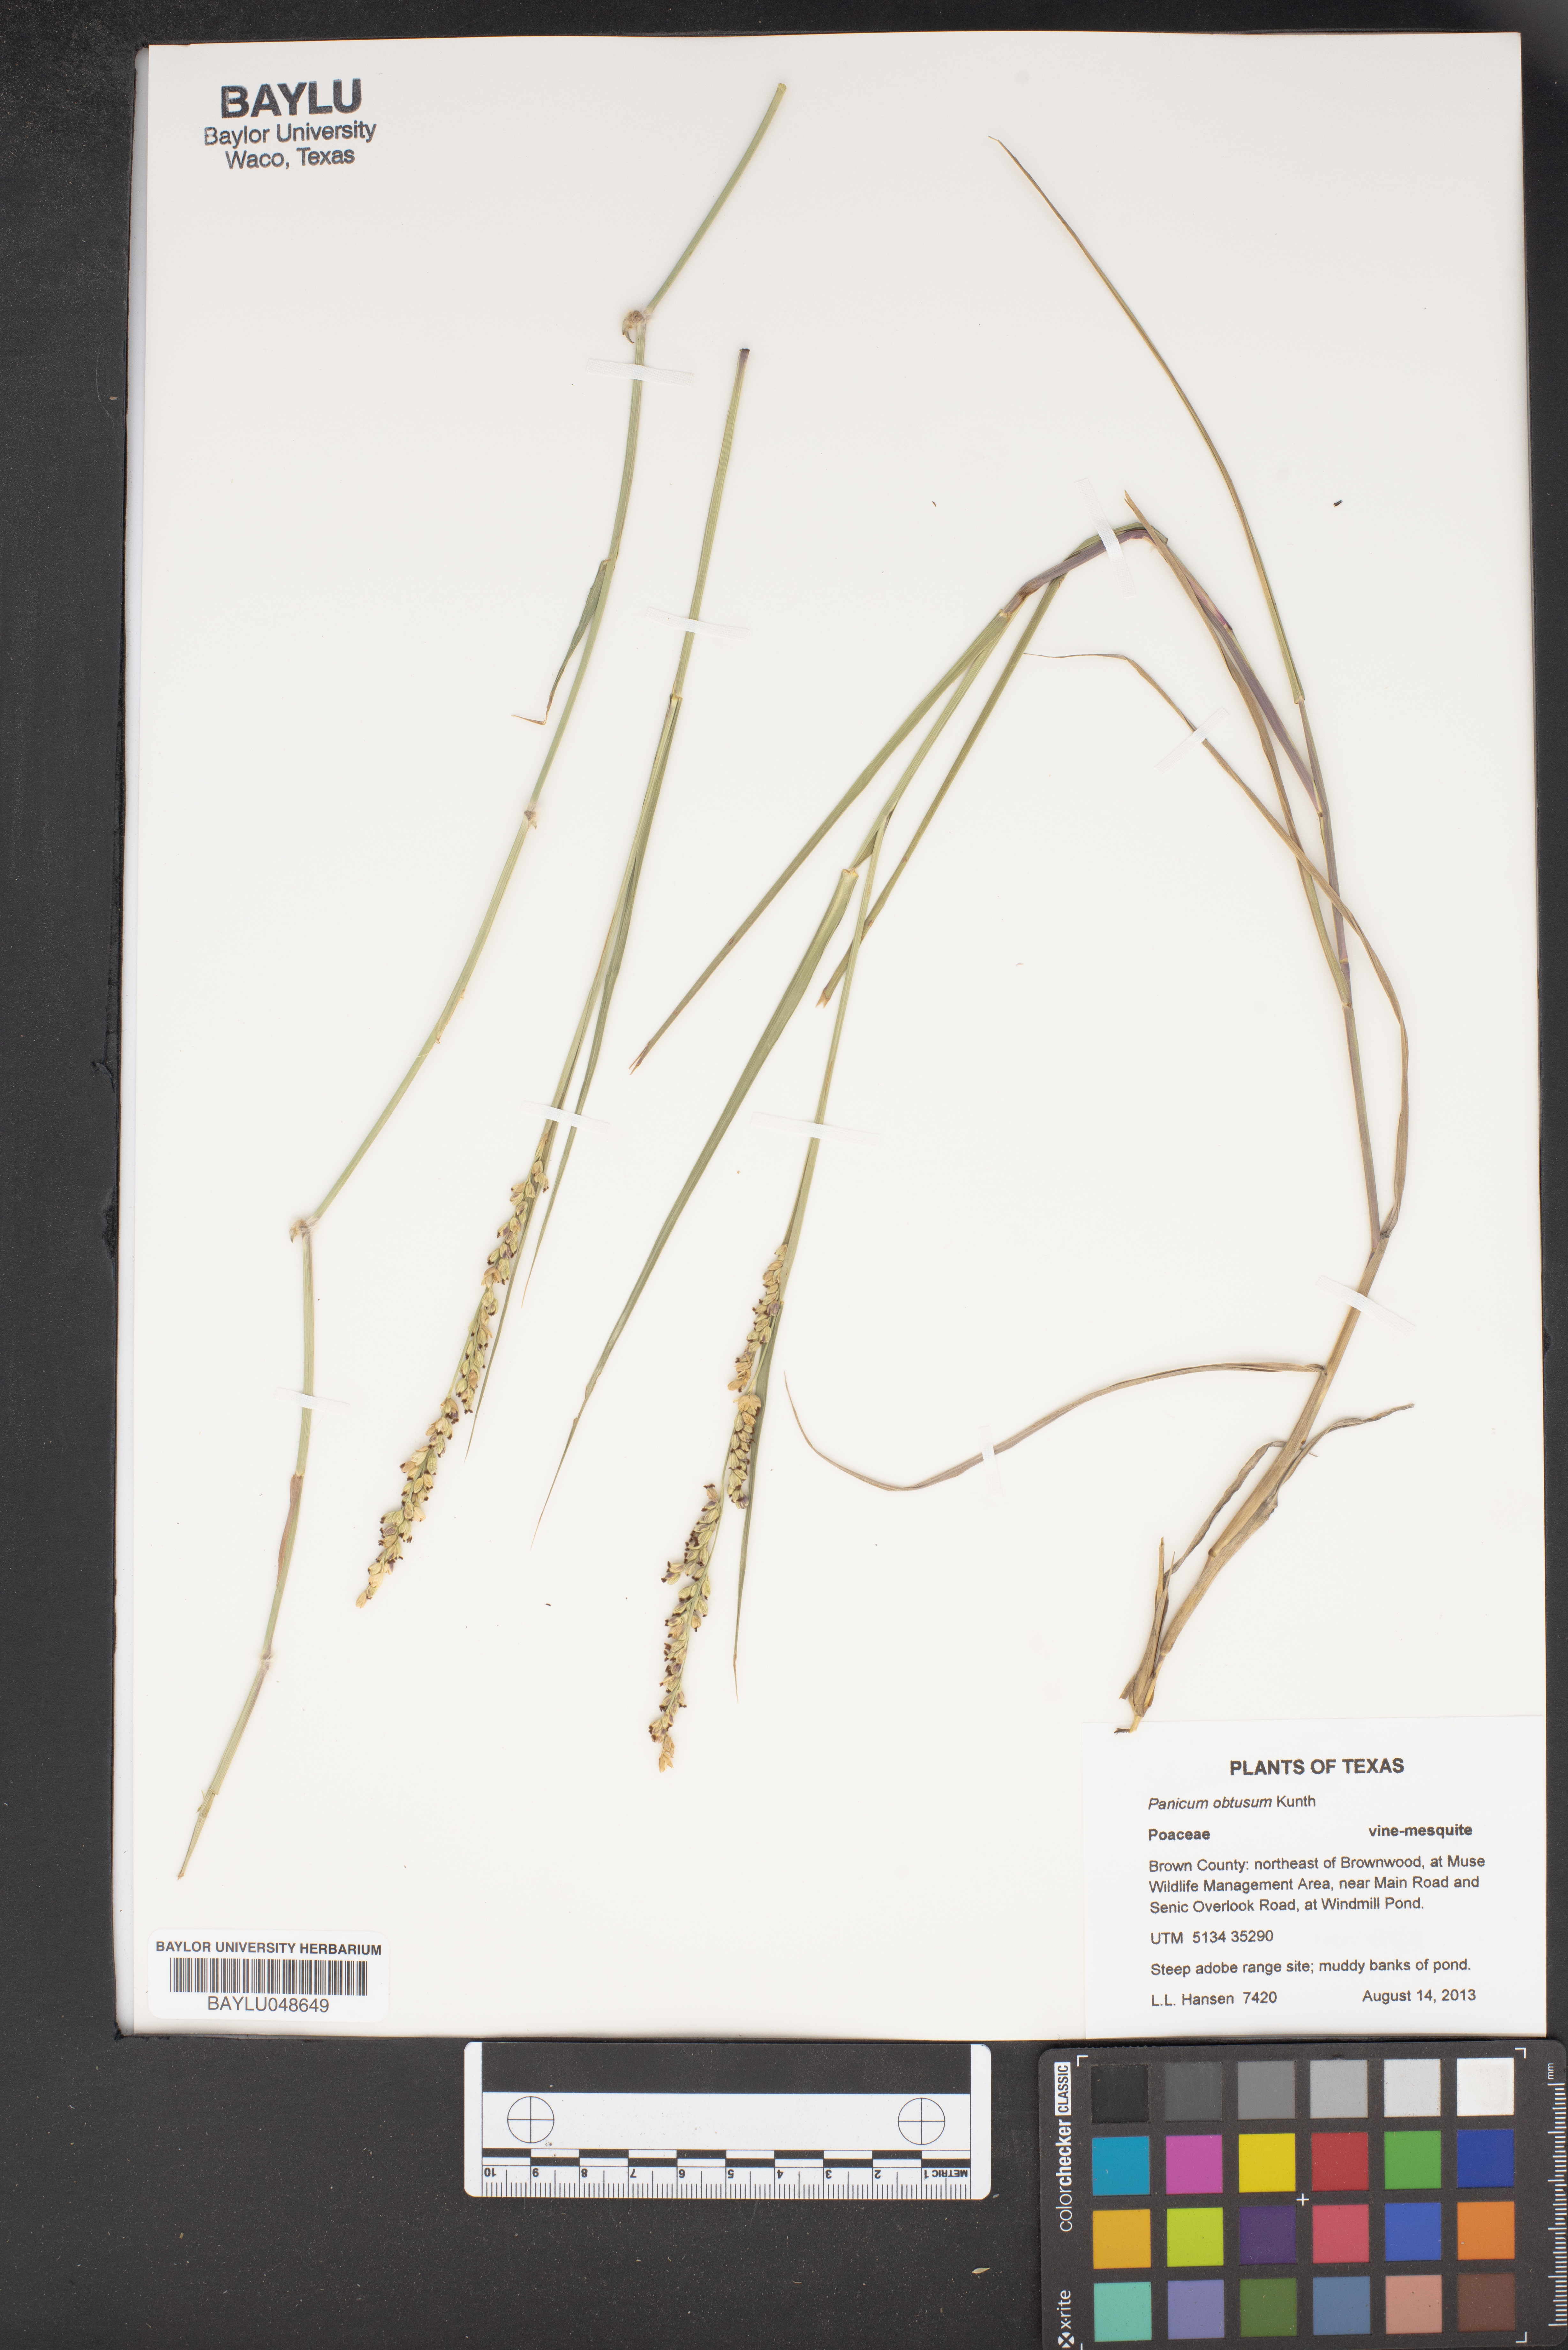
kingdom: Plantae
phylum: Tracheophyta
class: Liliopsida
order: Poales
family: Poaceae
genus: Hopia
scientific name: Hopia obtusa
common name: Vine-mesquite
